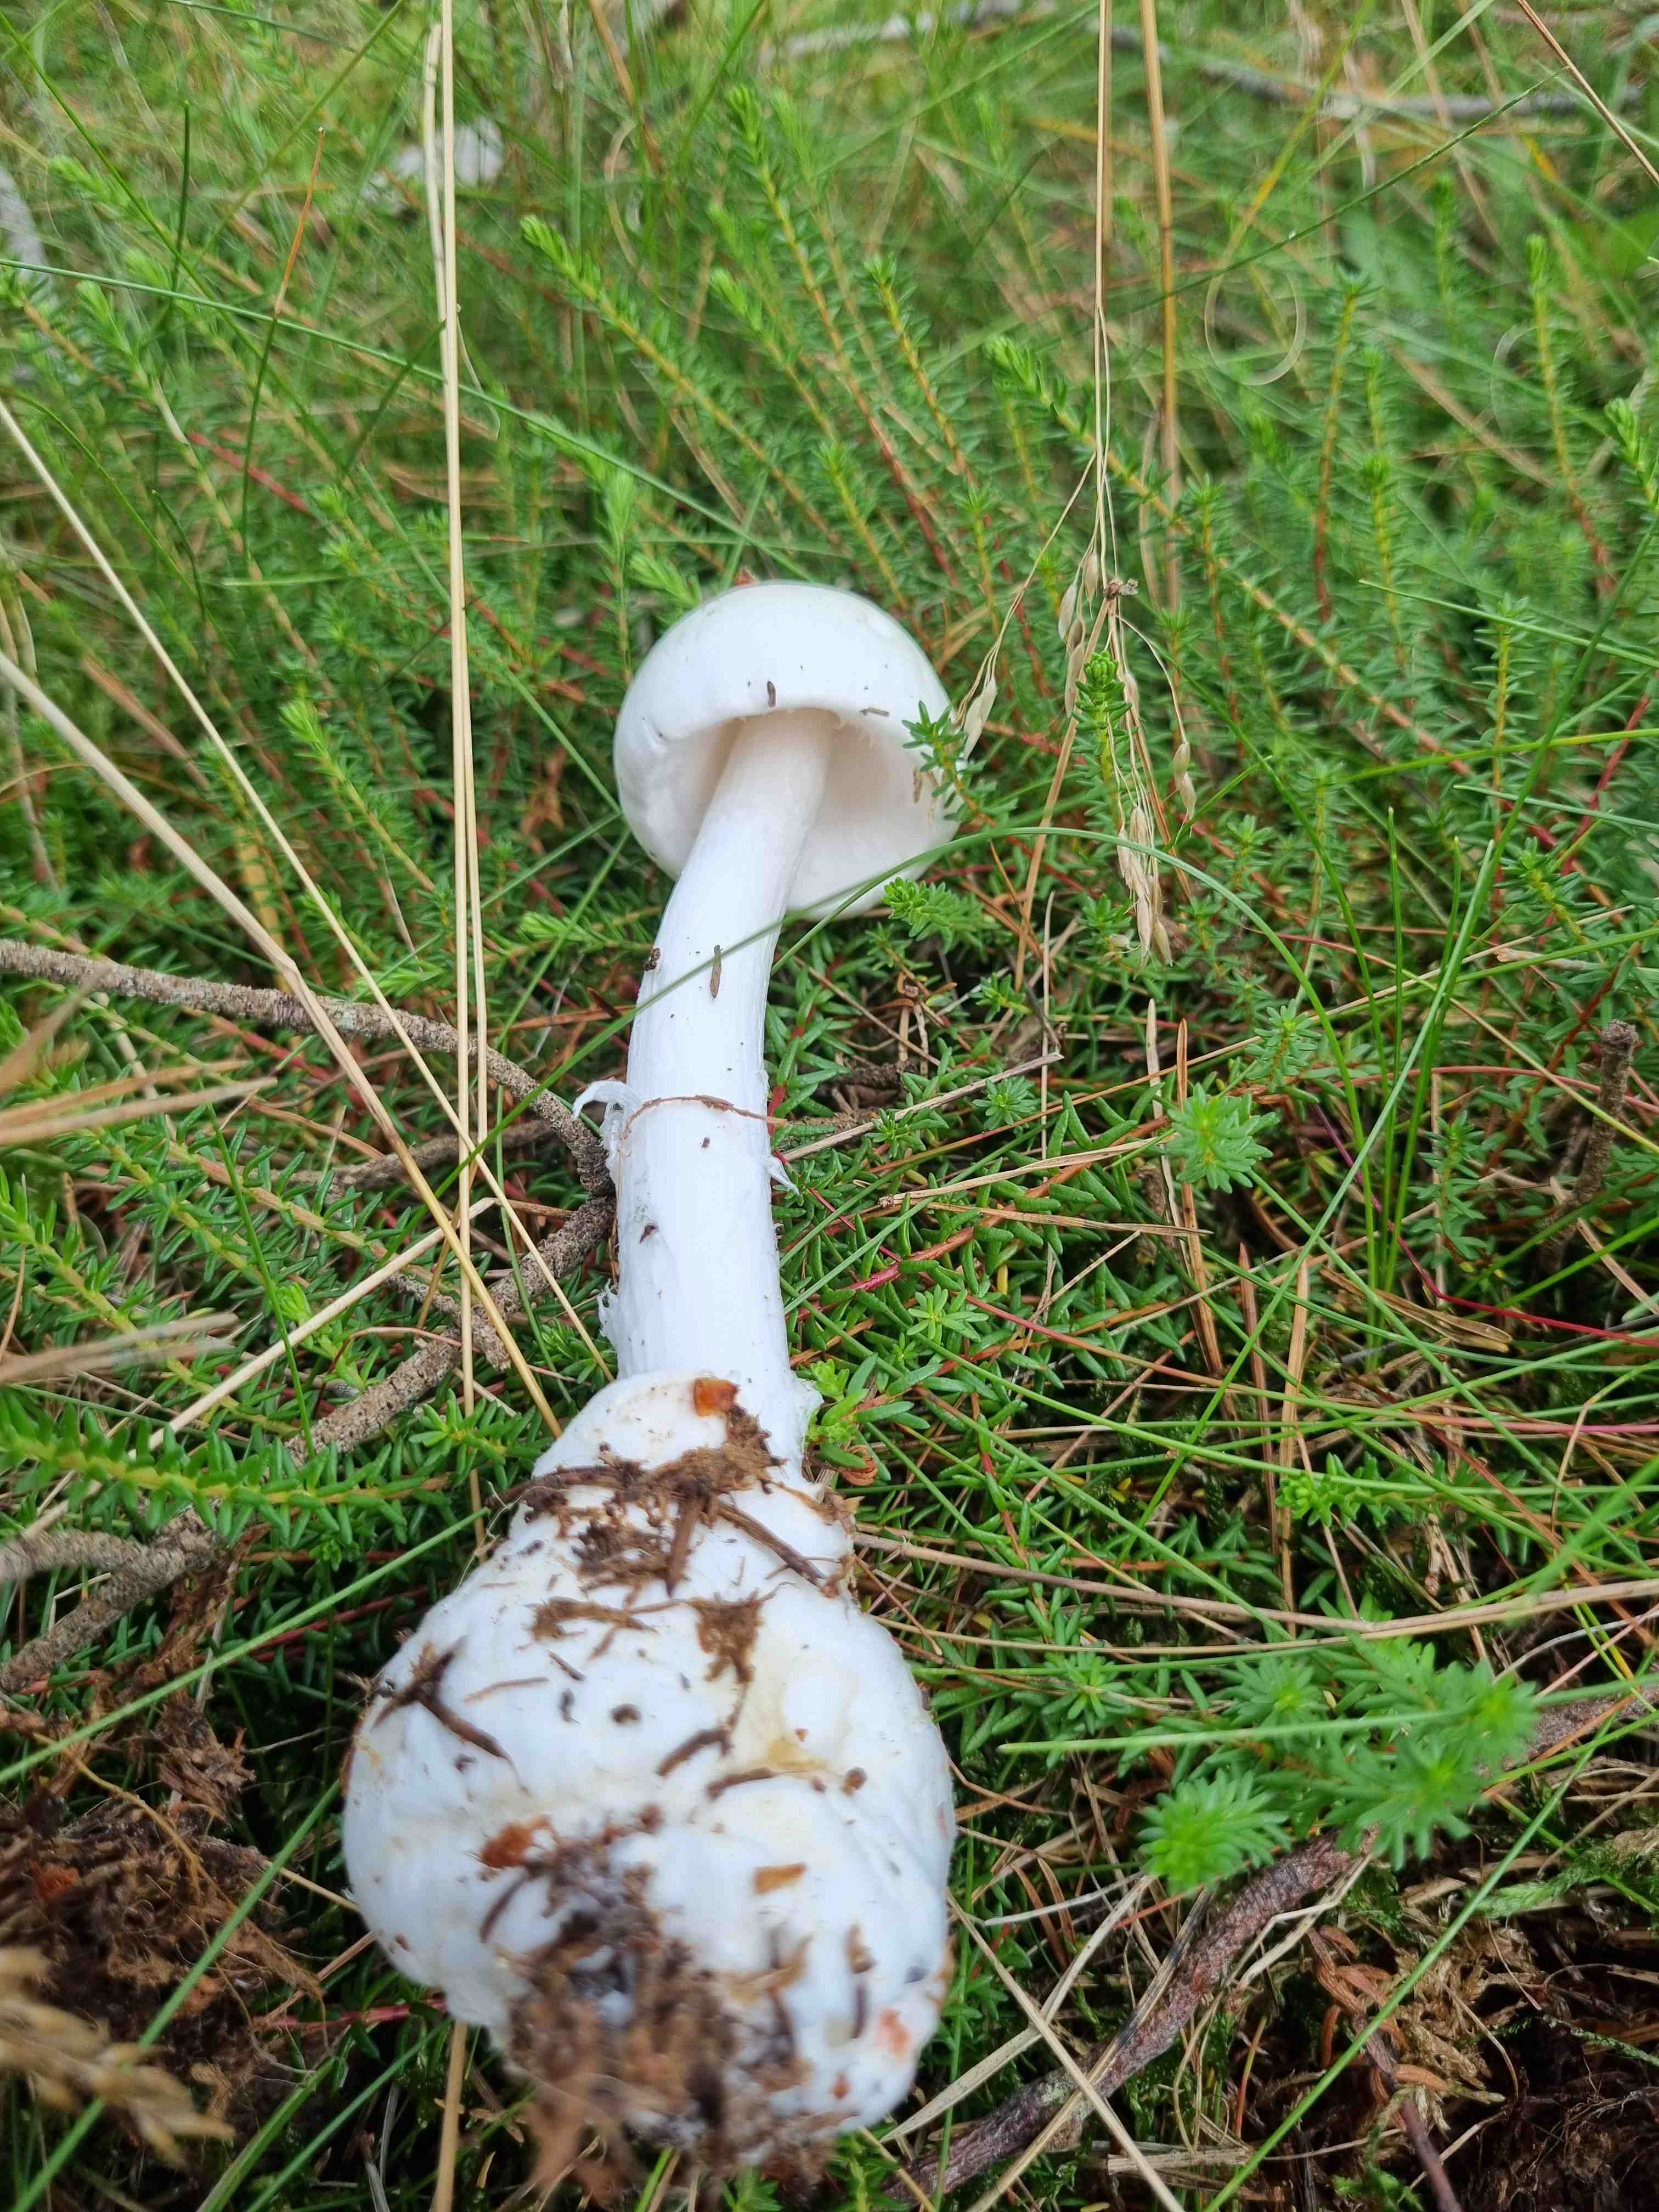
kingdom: Fungi
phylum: Basidiomycota
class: Agaricomycetes
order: Agaricales
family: Amanitaceae
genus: Amanita
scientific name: Amanita virosa
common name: snehvid fluesvamp
